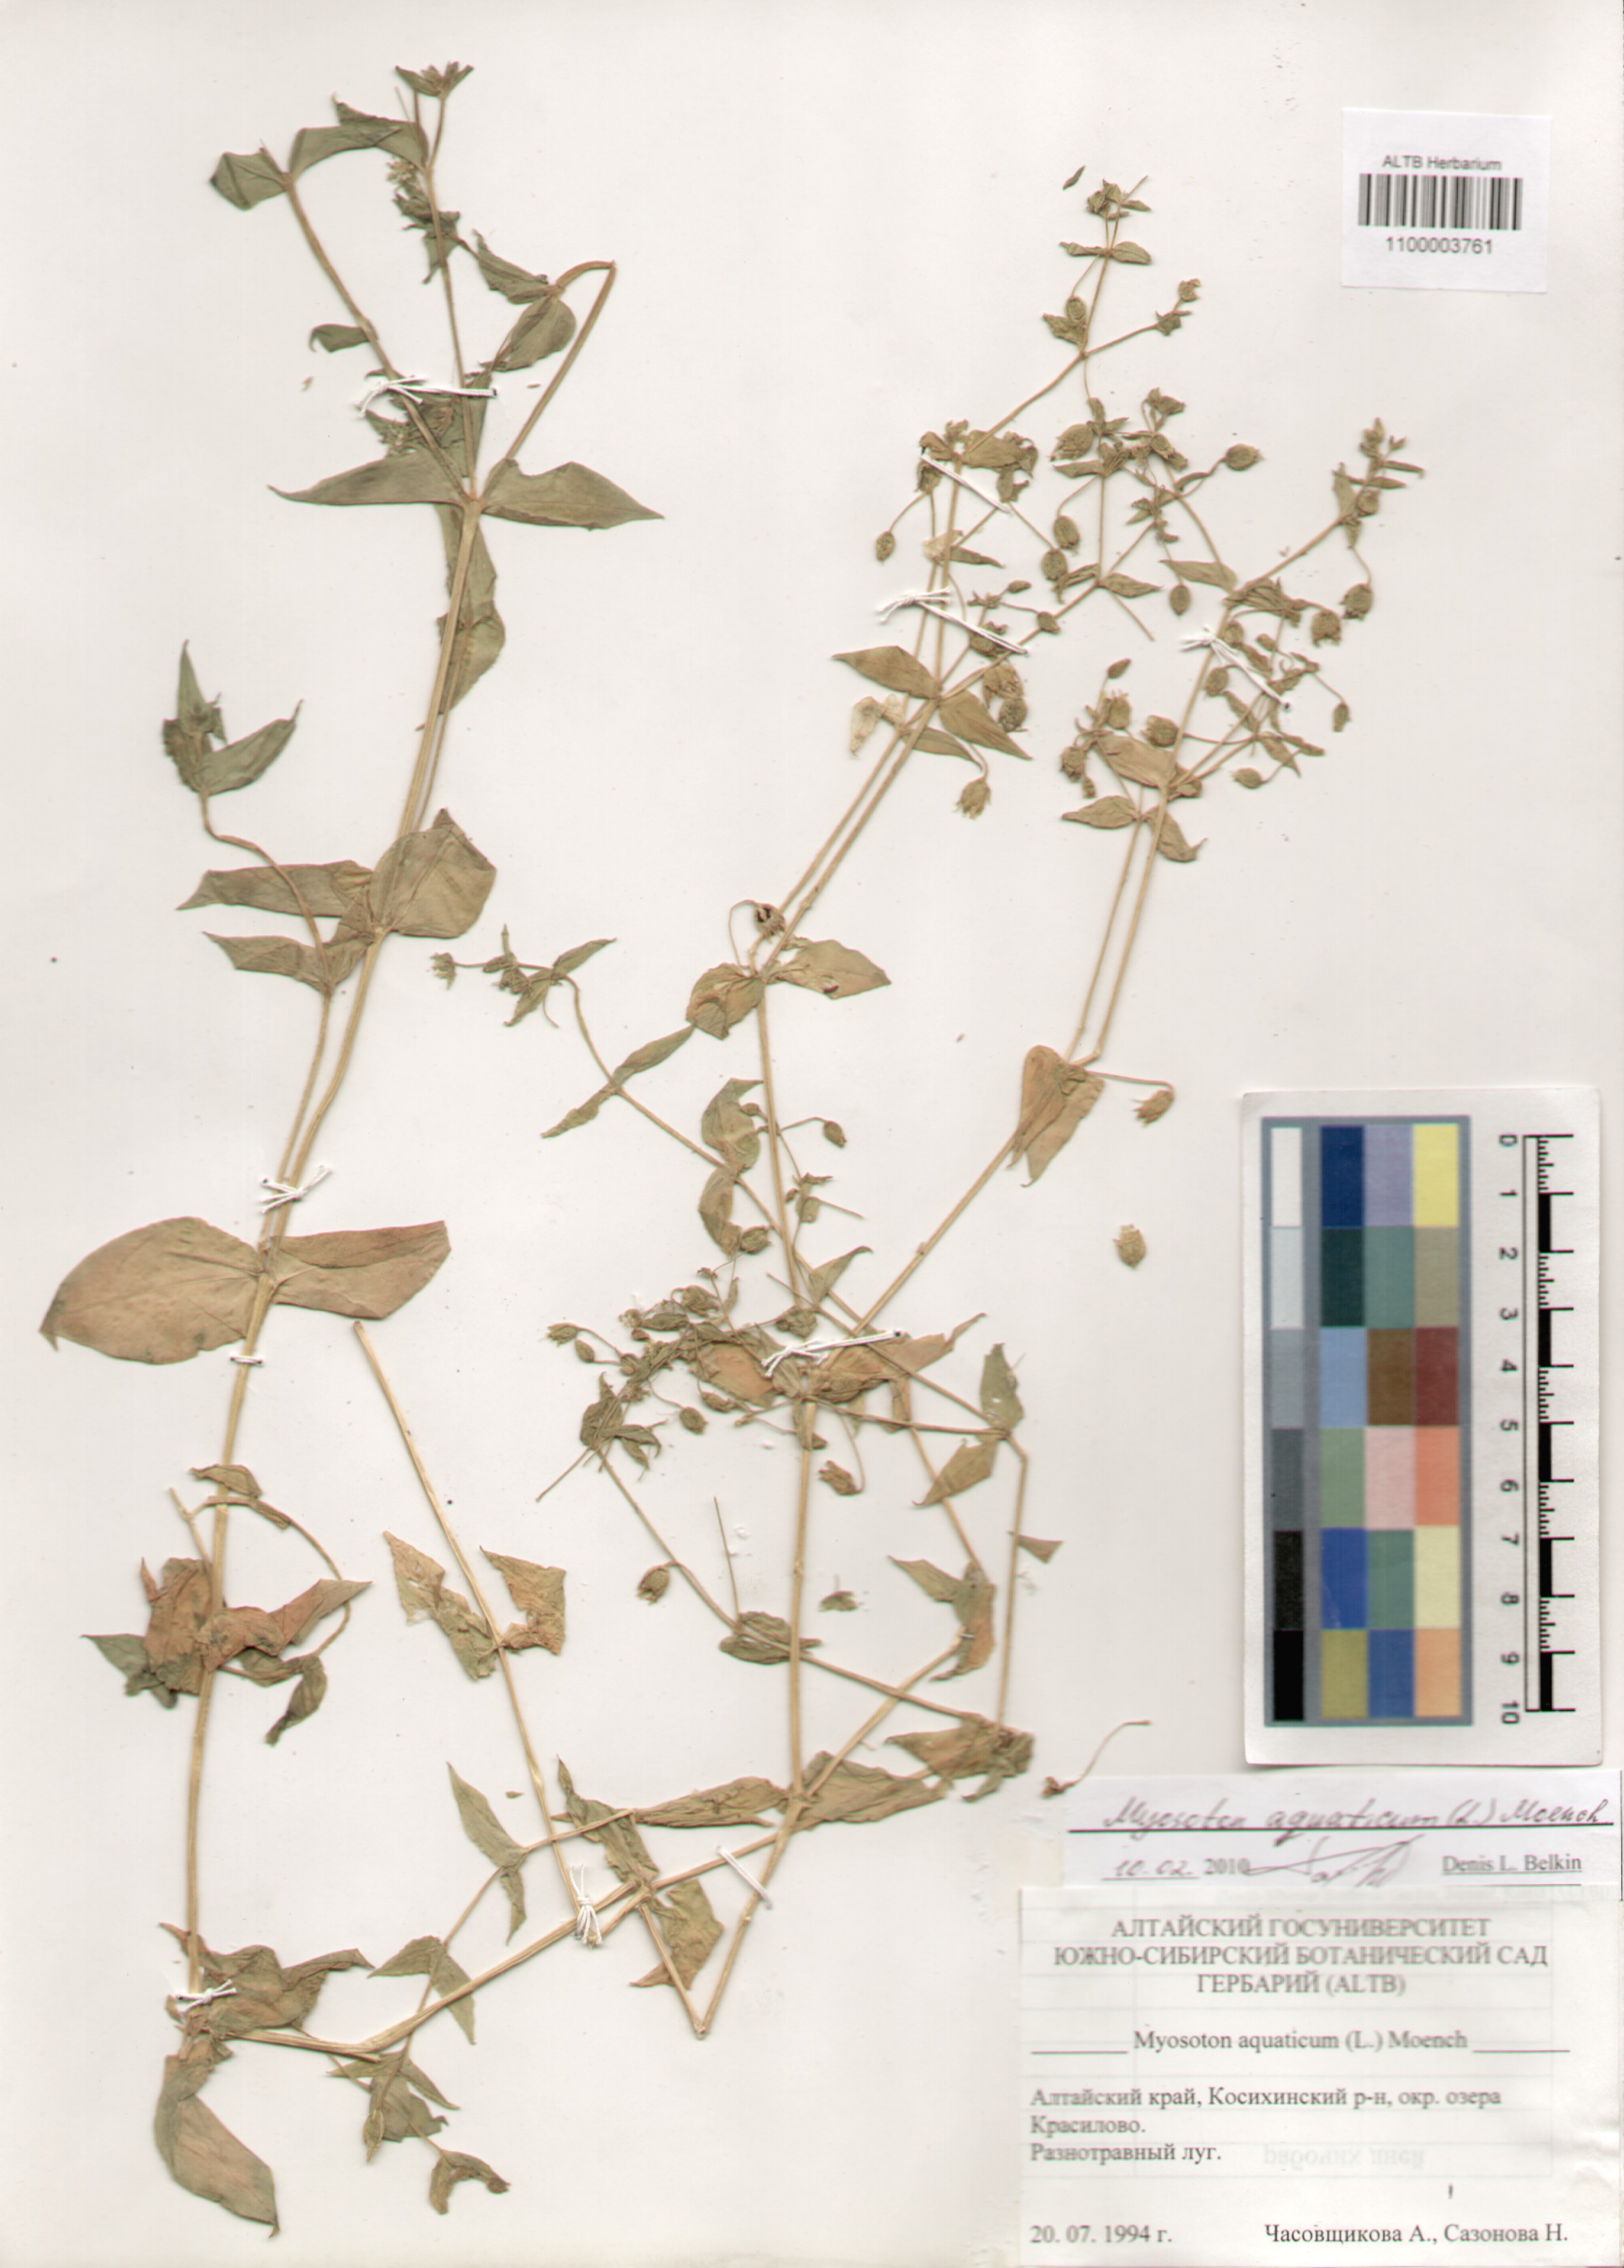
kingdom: Plantae
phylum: Tracheophyta
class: Magnoliopsida
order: Caryophyllales
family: Caryophyllaceae
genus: Stellaria
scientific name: Stellaria aquatica
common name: Water chickweed
